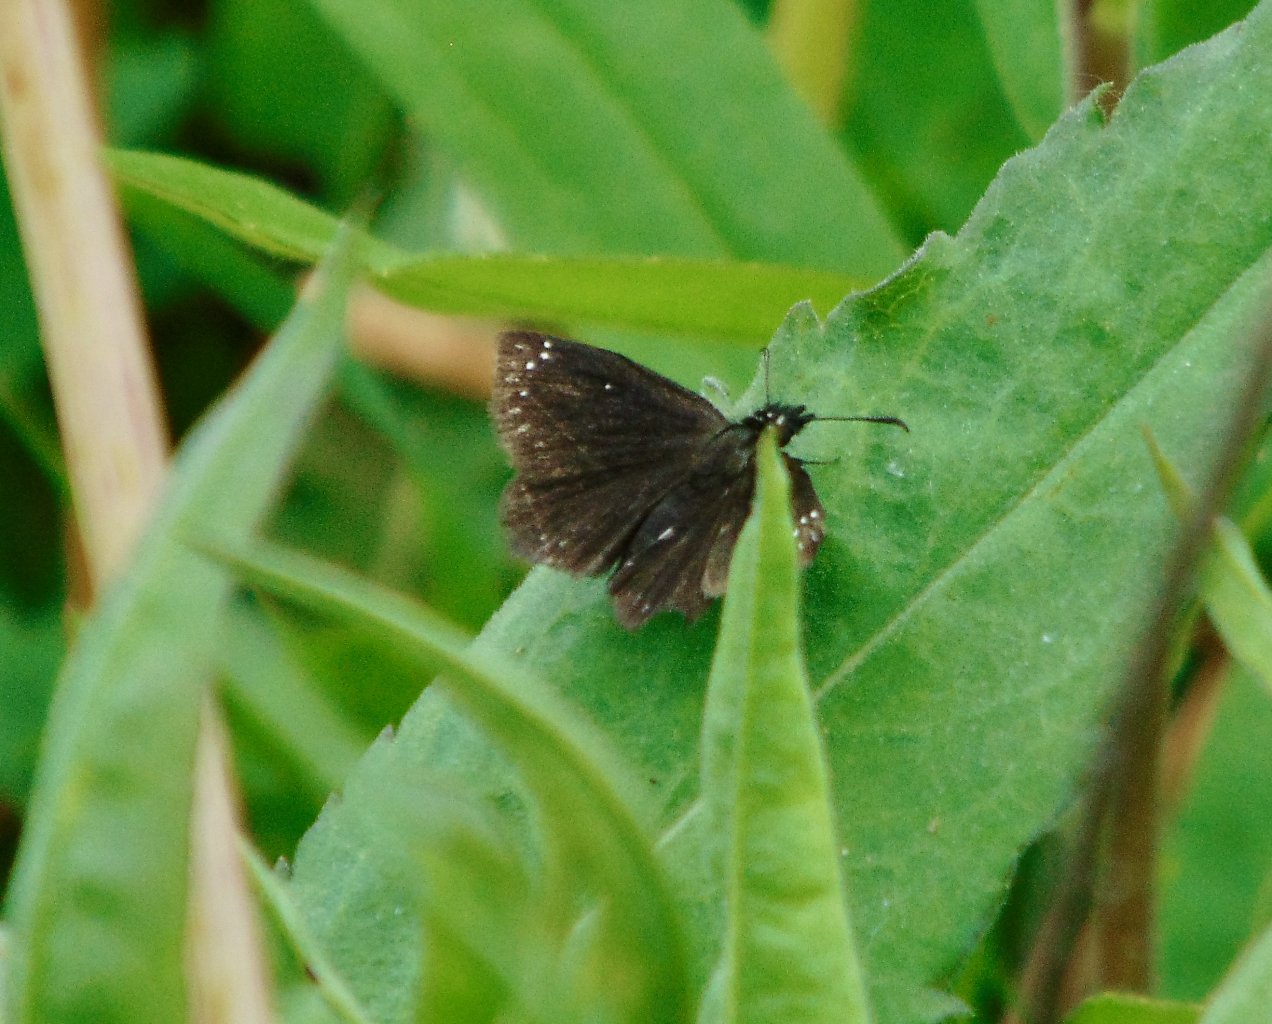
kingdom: Animalia
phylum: Arthropoda
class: Insecta
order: Lepidoptera
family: Hesperiidae
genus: Pholisora
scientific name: Pholisora catullus
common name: Common Sootywing
